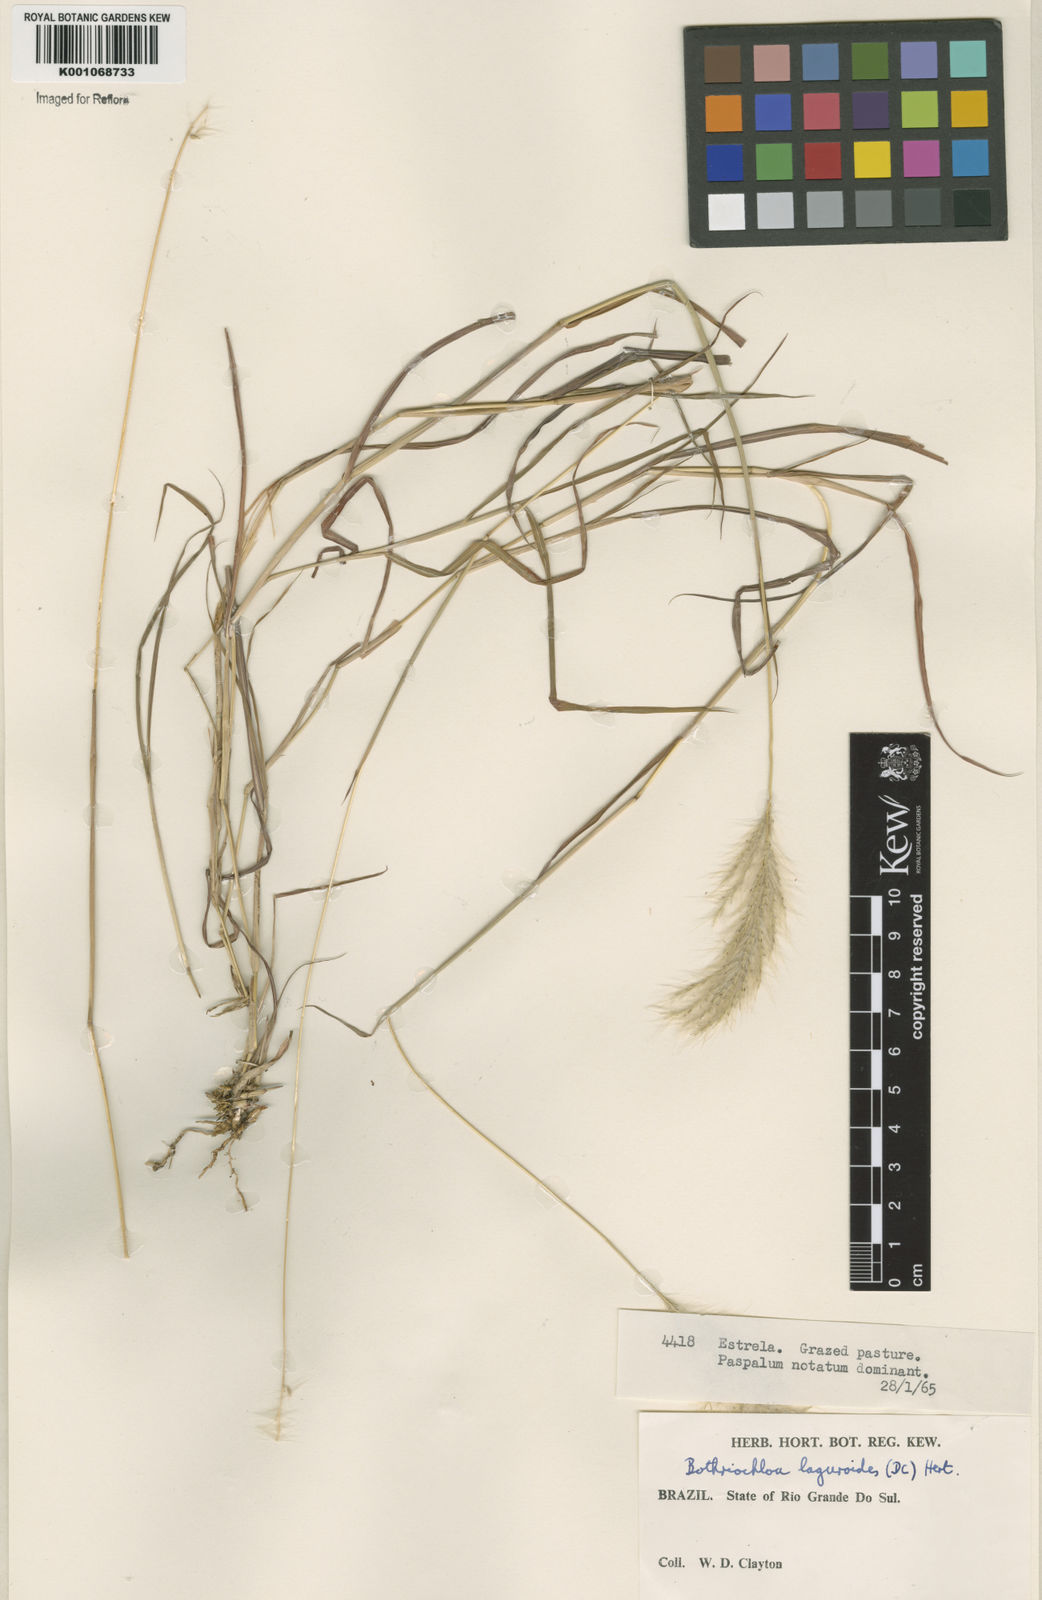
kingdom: Plantae
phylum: Tracheophyta
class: Liliopsida
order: Poales
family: Poaceae
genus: Bothriochloa
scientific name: Bothriochloa laguroides
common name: Silver bluestem
